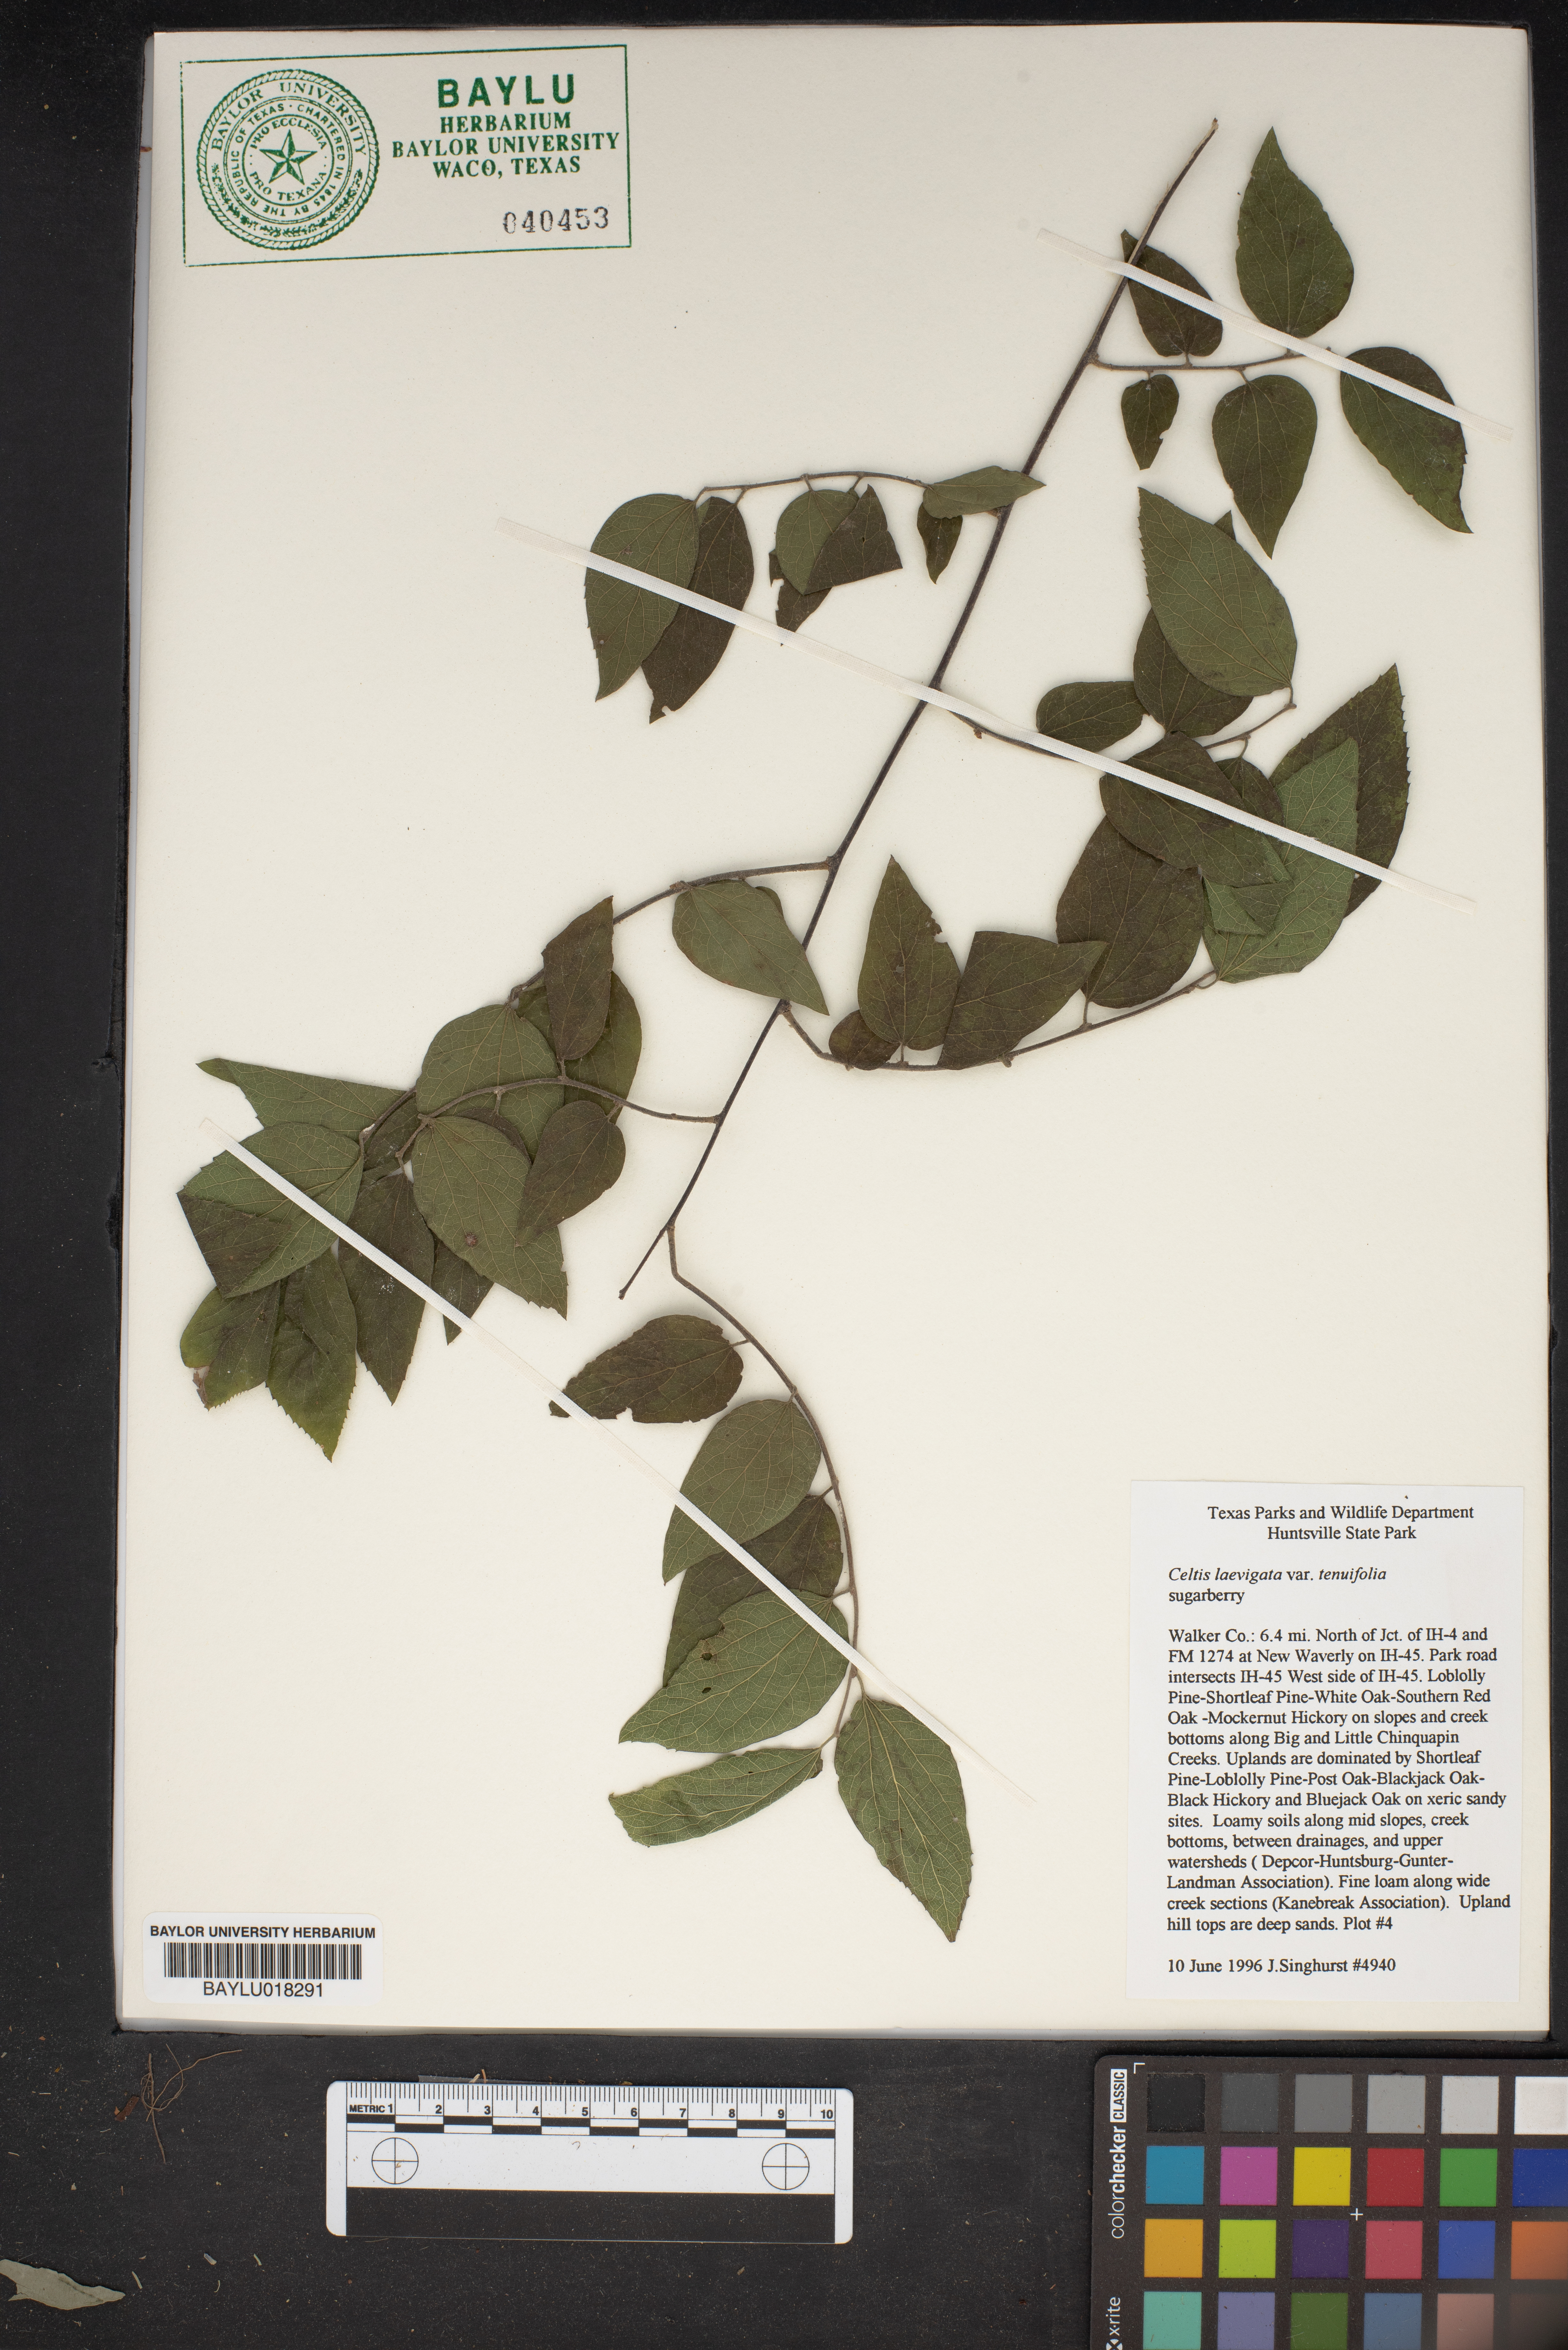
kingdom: Plantae
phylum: Tracheophyta
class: Magnoliopsida
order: Rosales
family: Cannabaceae
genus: Celtis
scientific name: Celtis laevigata
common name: Sugarberry
